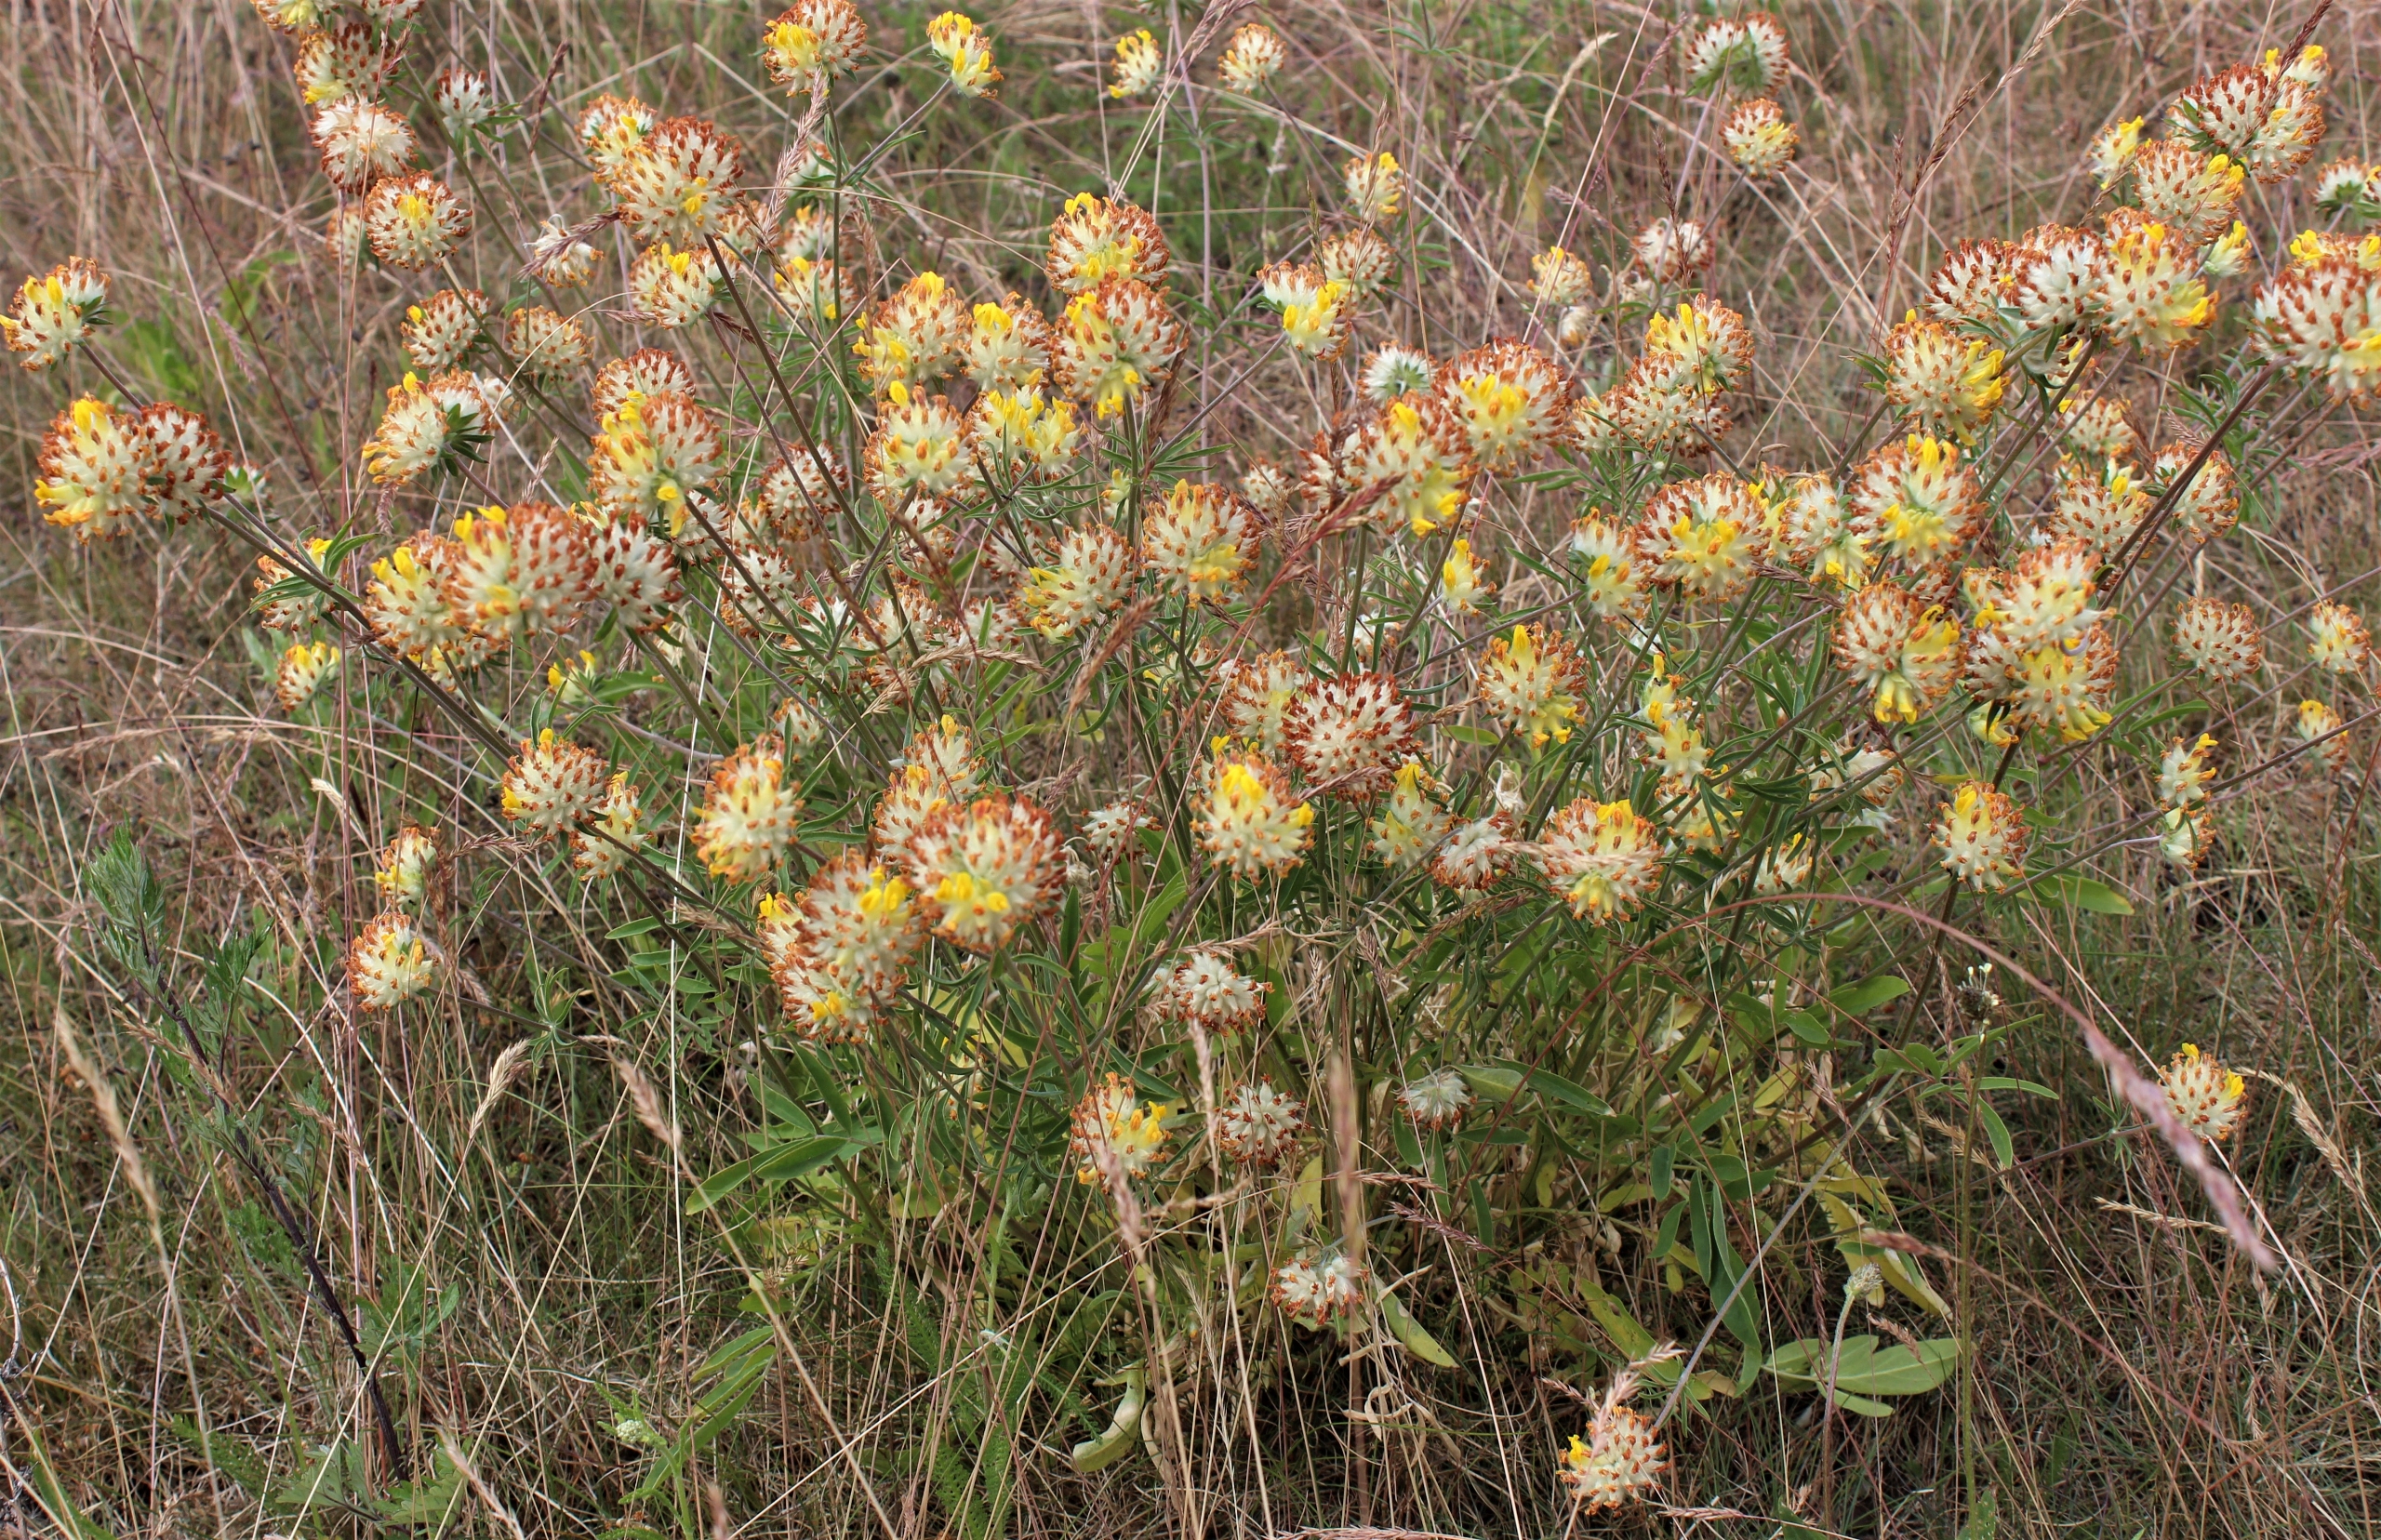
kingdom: Plantae
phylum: Tracheophyta
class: Magnoliopsida
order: Fabales
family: Fabaceae
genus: Anthyllis
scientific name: Anthyllis vulneraria
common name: Rundbælg
